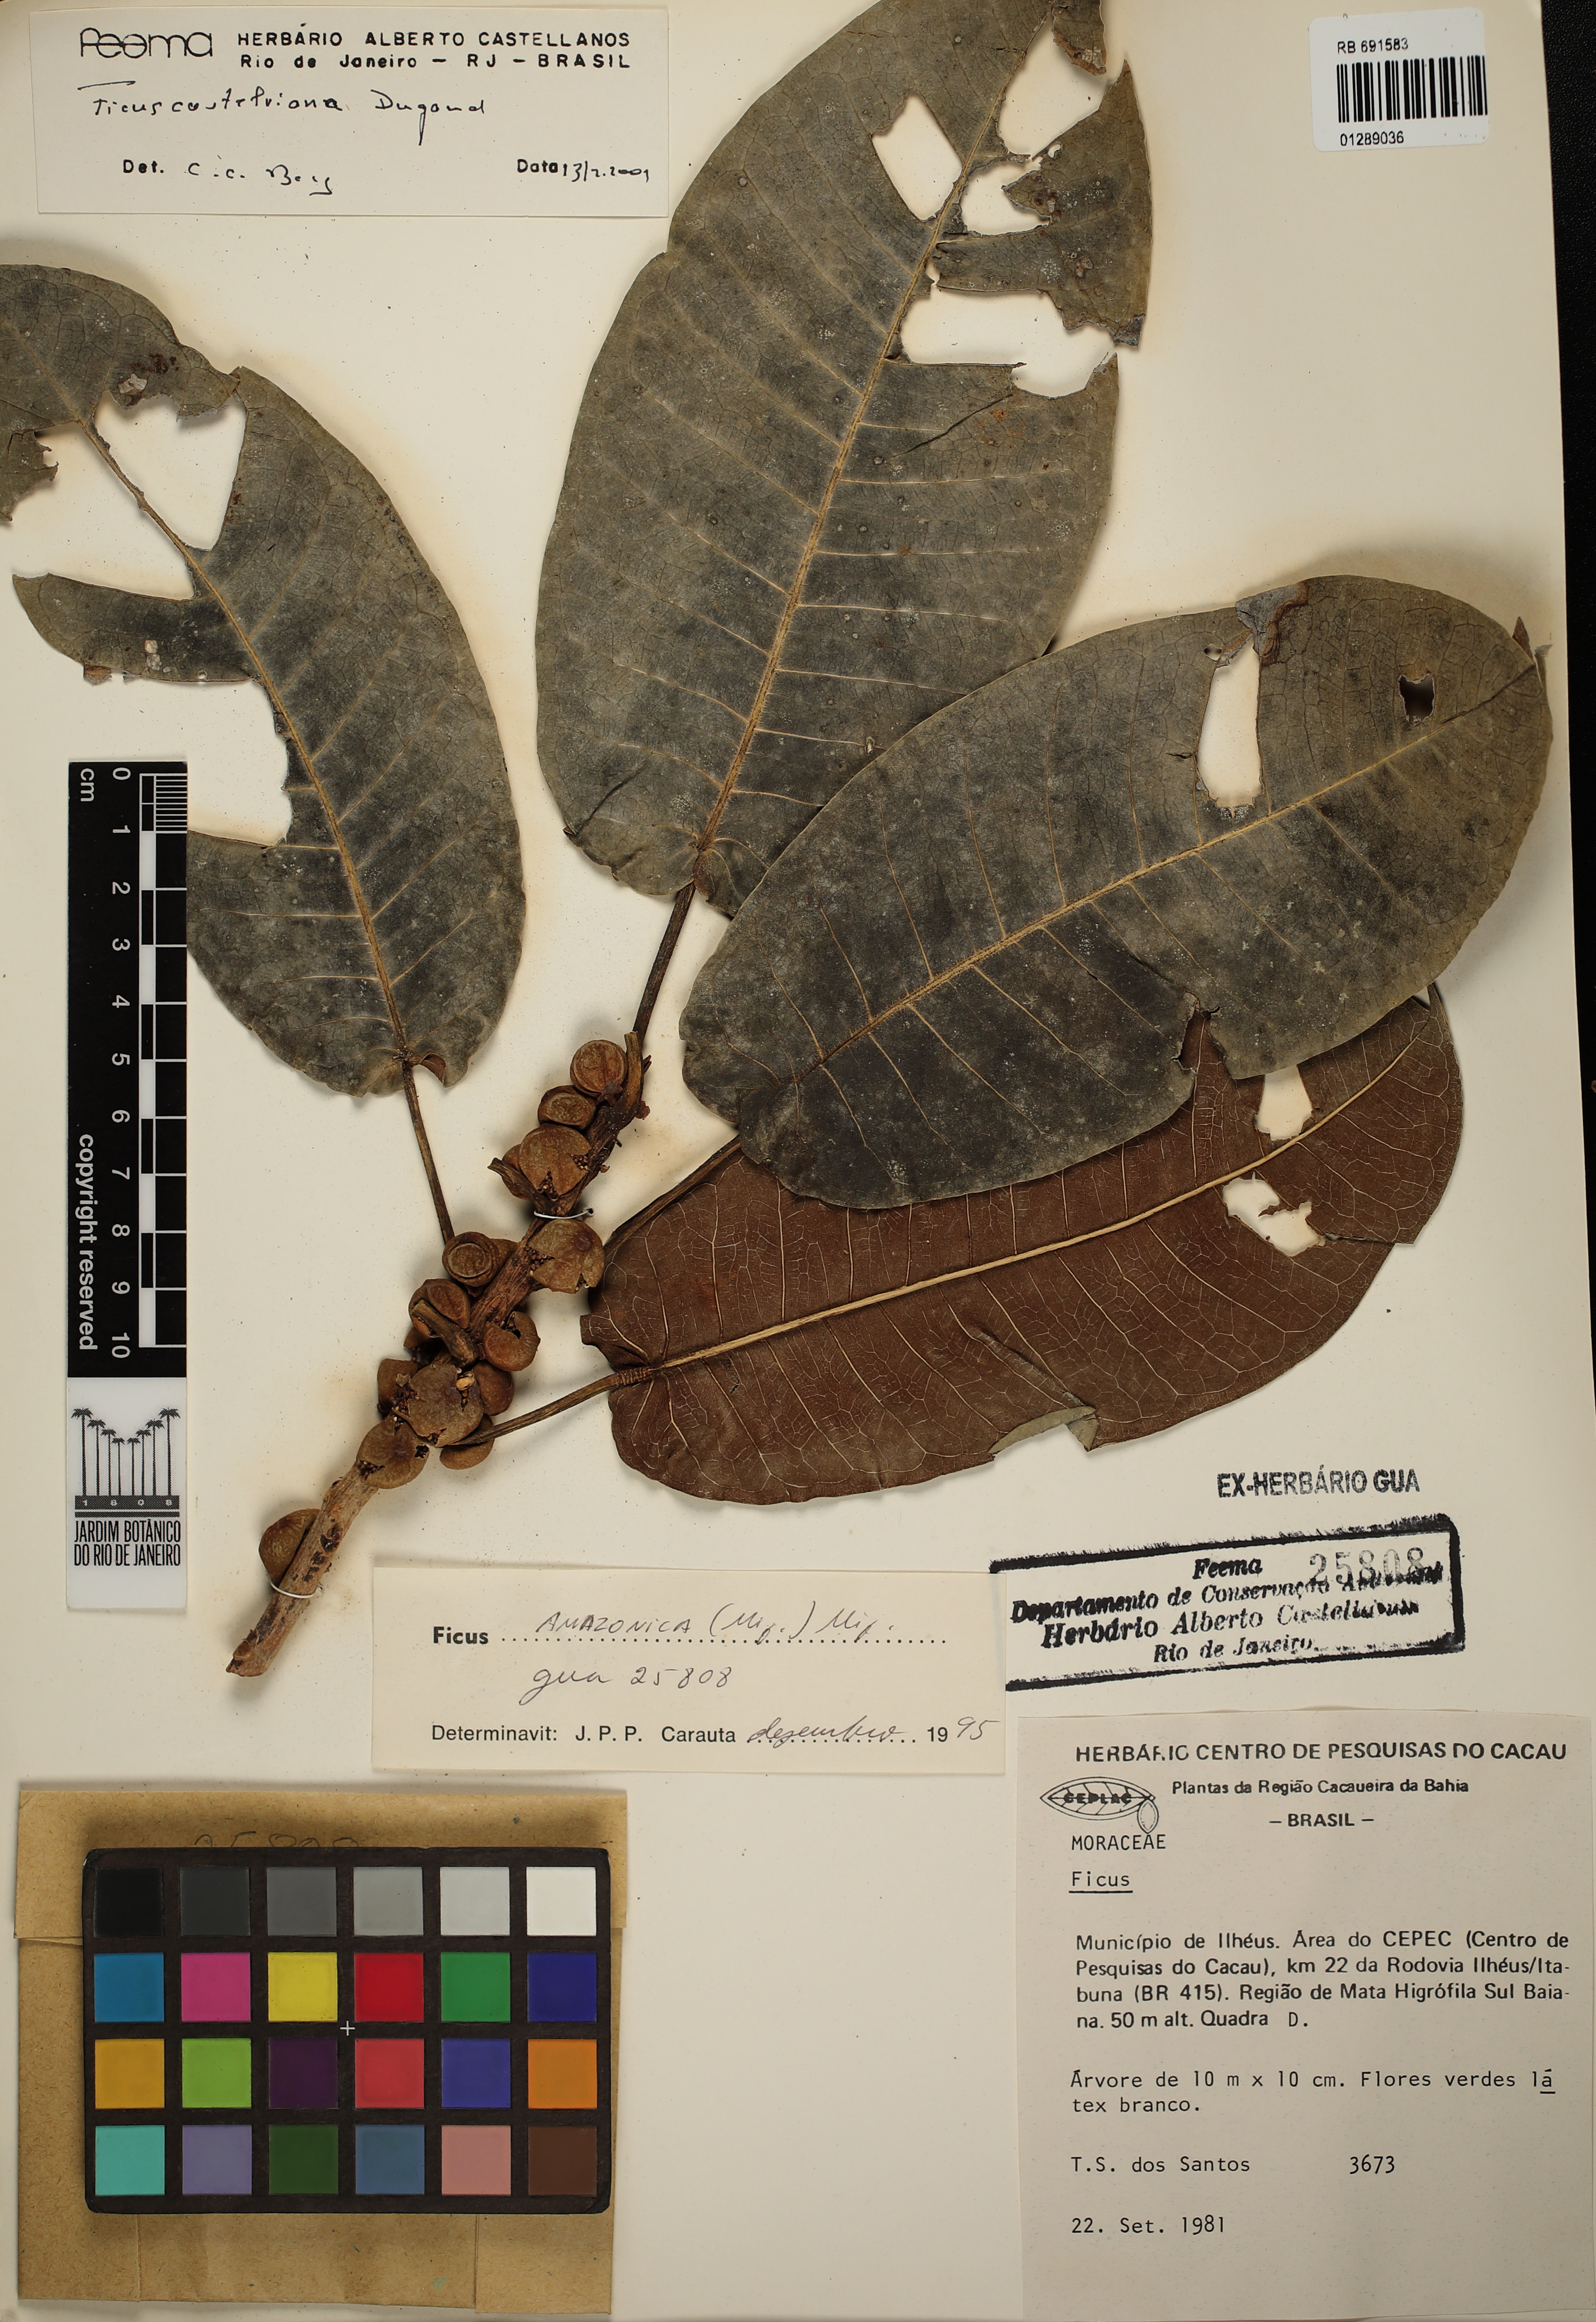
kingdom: Plantae
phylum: Tracheophyta
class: Magnoliopsida
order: Rosales
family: Moraceae
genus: Ficus
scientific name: Ficus castellviana
